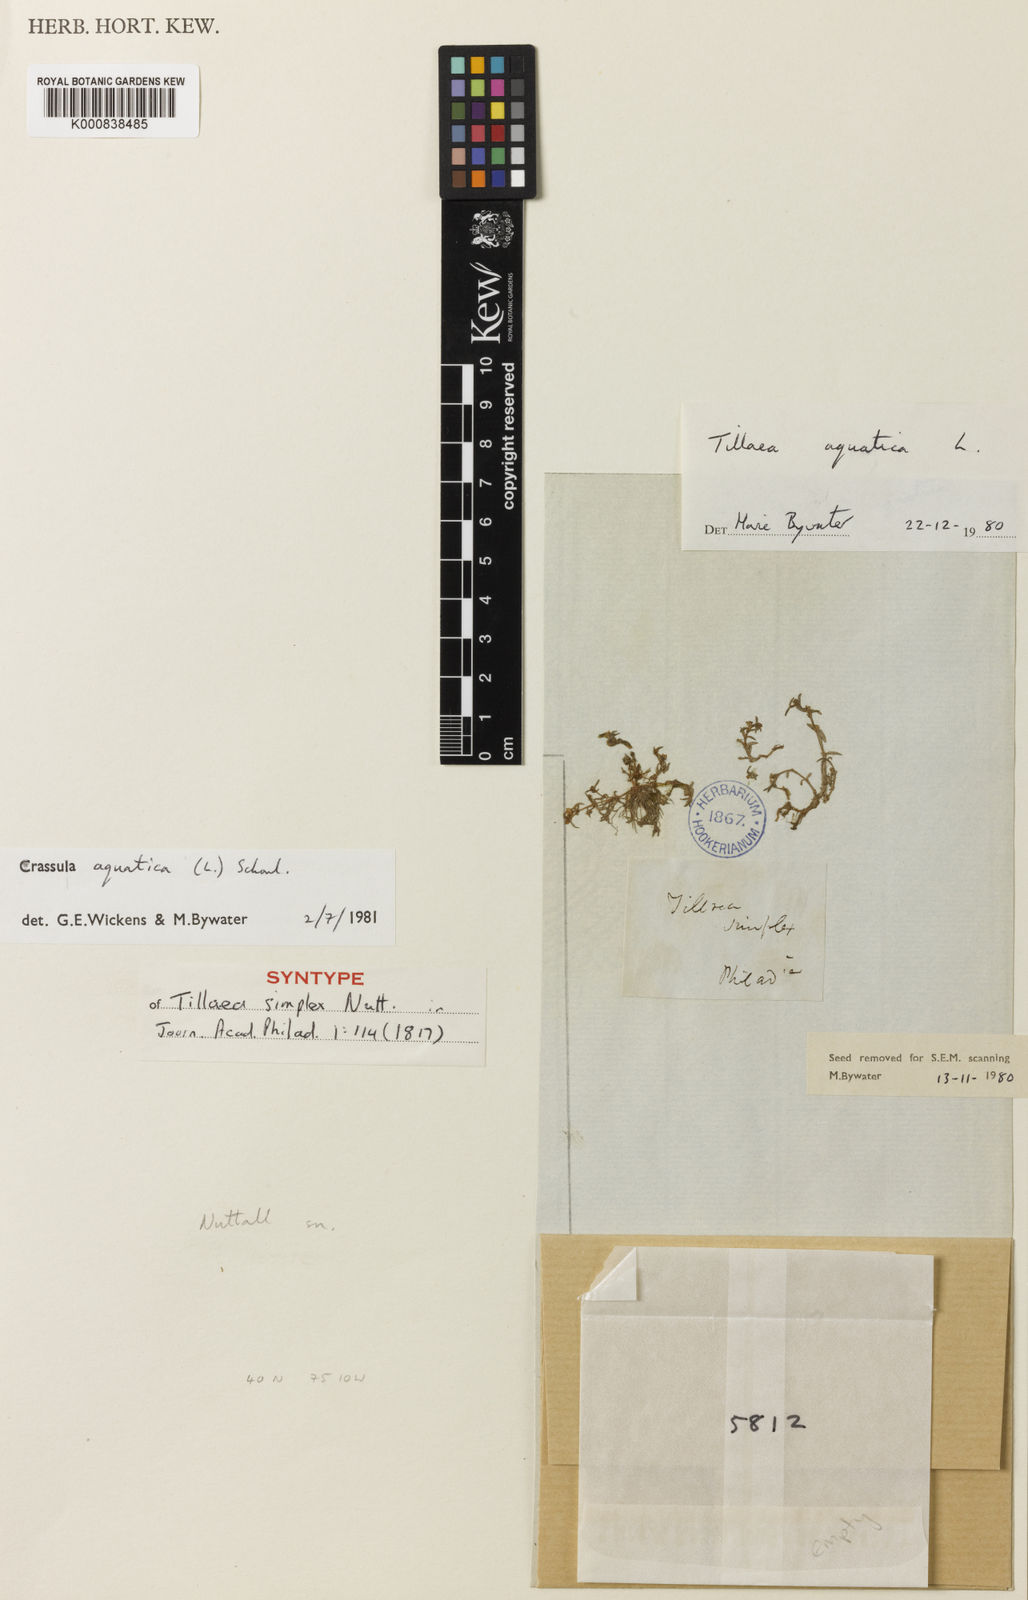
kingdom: Plantae
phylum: Tracheophyta
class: Magnoliopsida
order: Saxifragales
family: Crassulaceae
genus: Crassula
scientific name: Crassula
